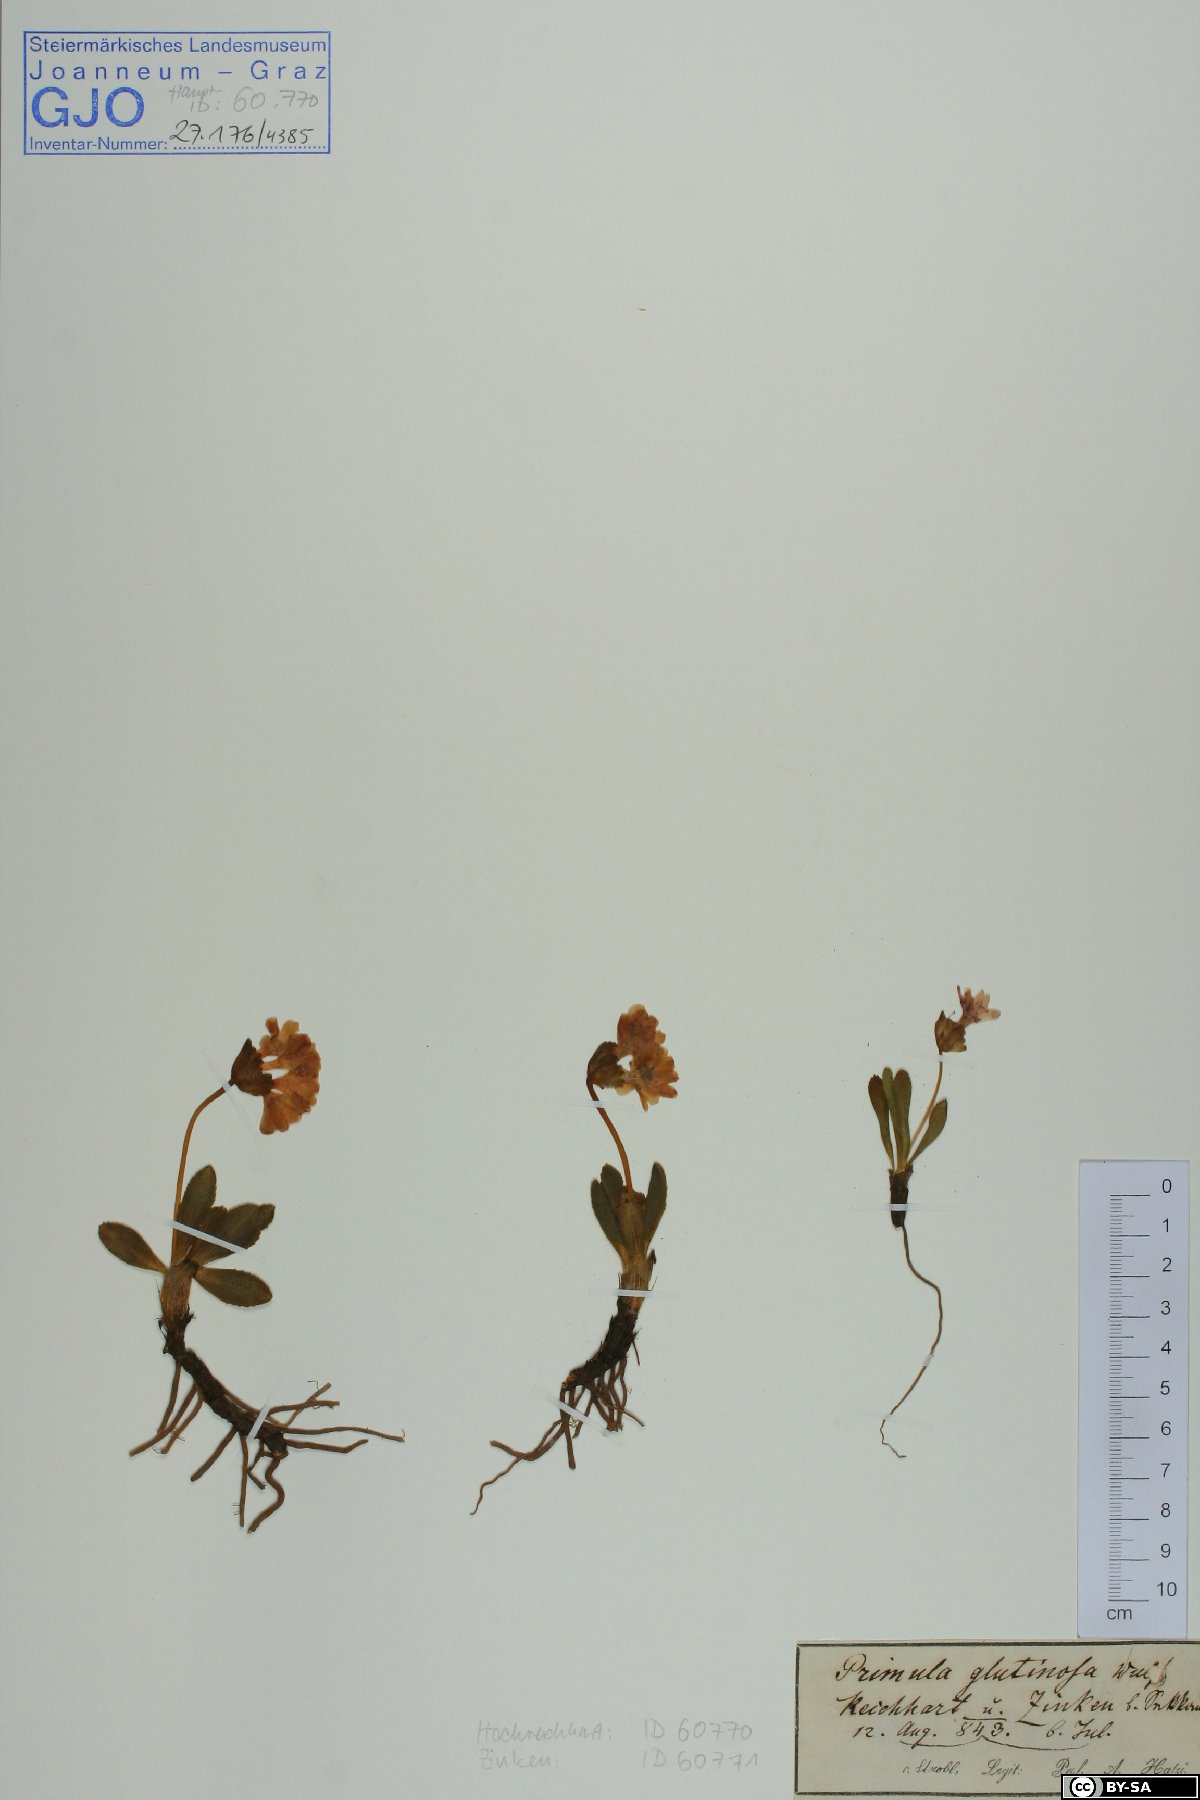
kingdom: Plantae
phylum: Tracheophyta
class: Magnoliopsida
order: Ericales
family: Primulaceae
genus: Primula
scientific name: Primula glutinosa
